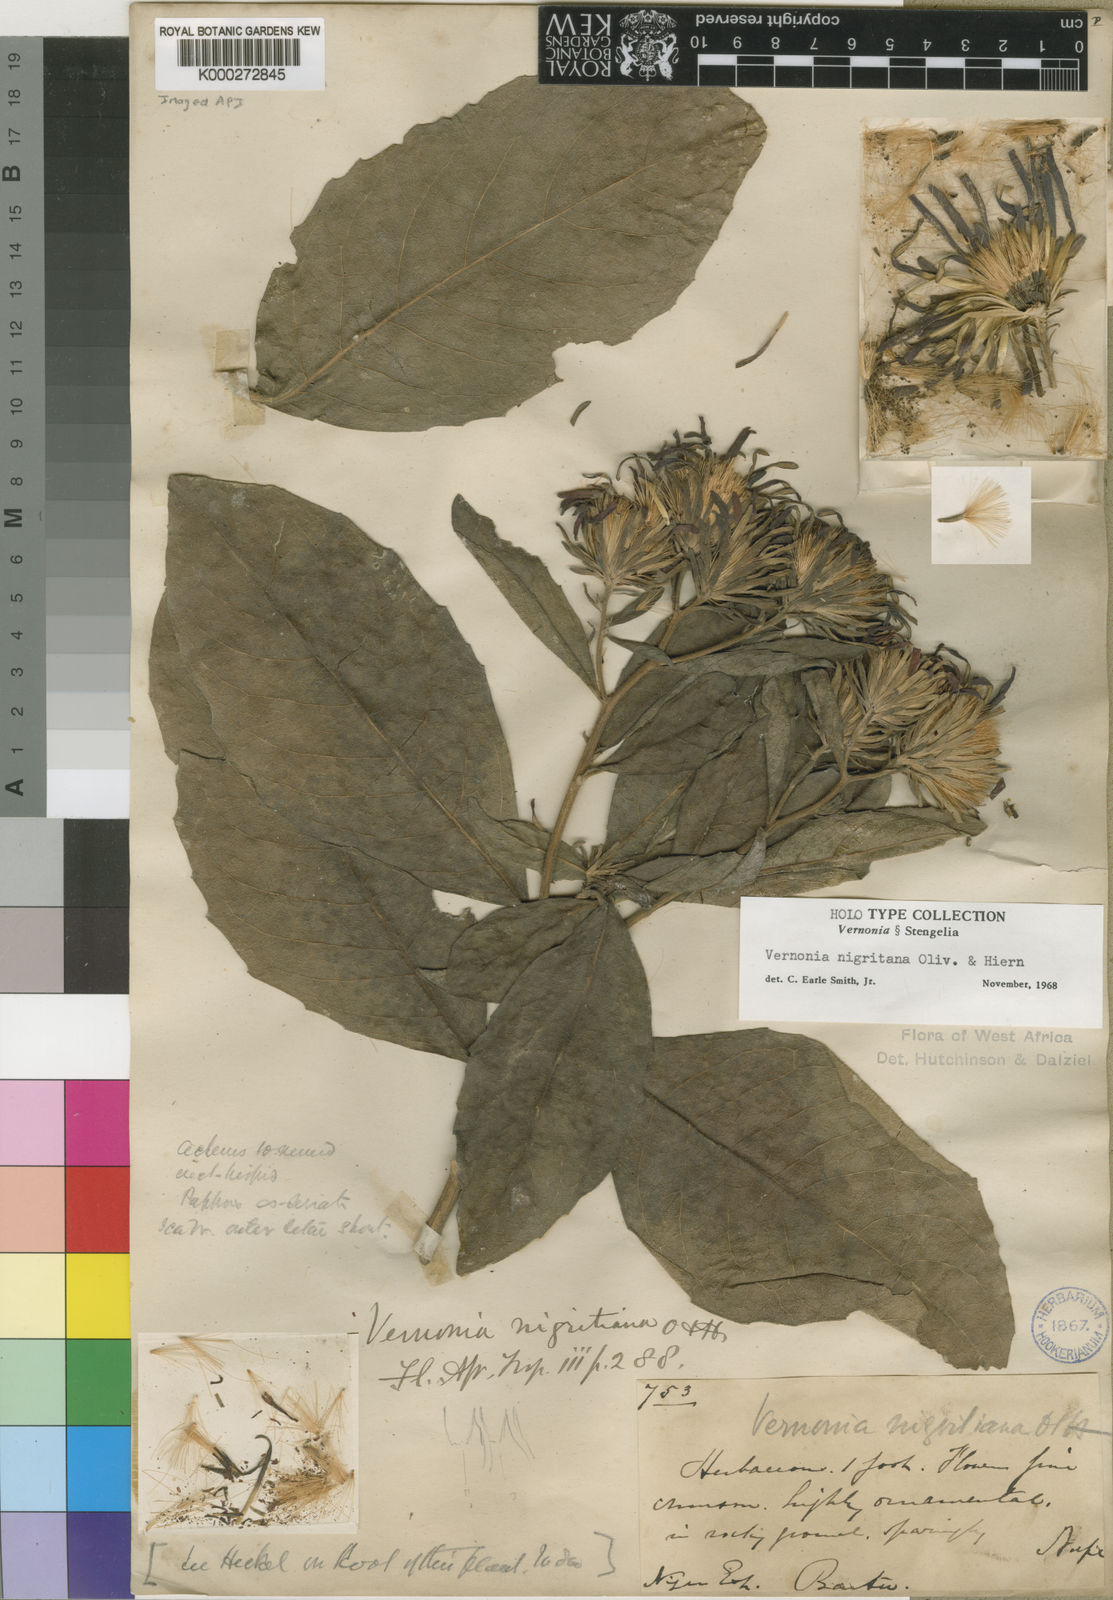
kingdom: Plantae
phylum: Tracheophyta
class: Magnoliopsida
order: Asterales
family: Asteraceae
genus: Linzia
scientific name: Linzia nigritiana
